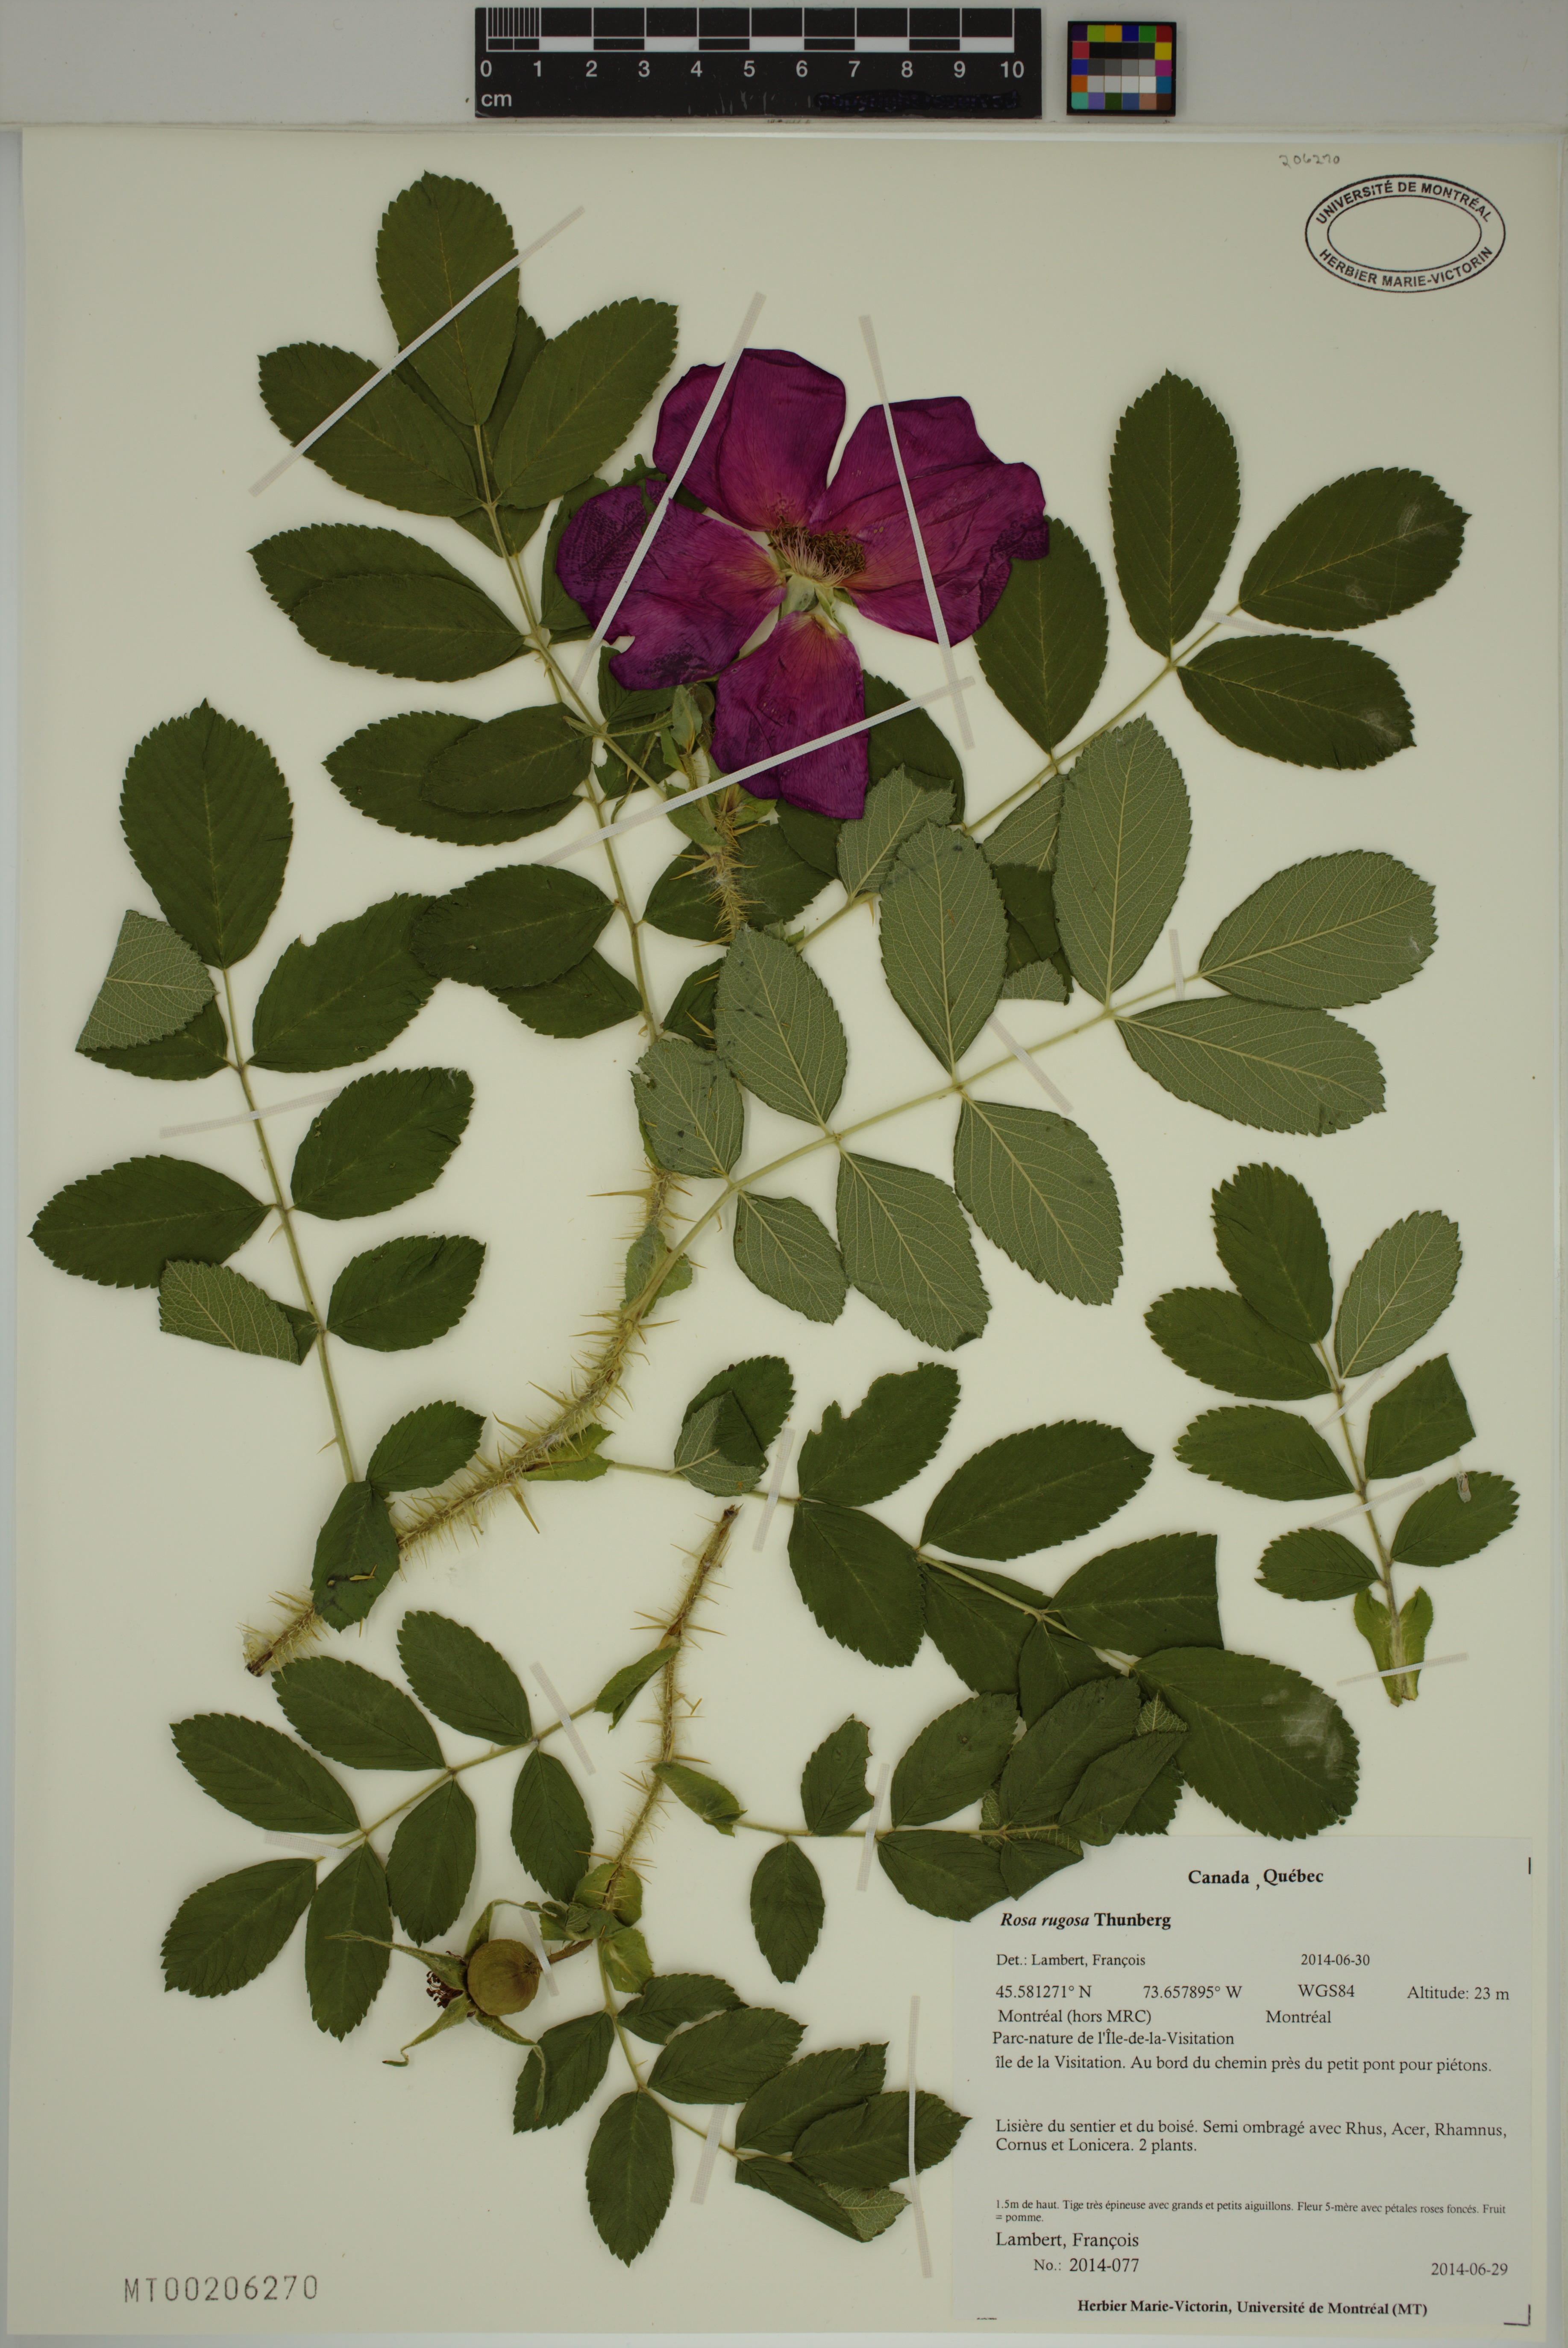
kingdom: Plantae
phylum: Tracheophyta
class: Magnoliopsida
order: Rosales
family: Rosaceae
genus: Rosa
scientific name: Rosa rugosa
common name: Japanese rose
